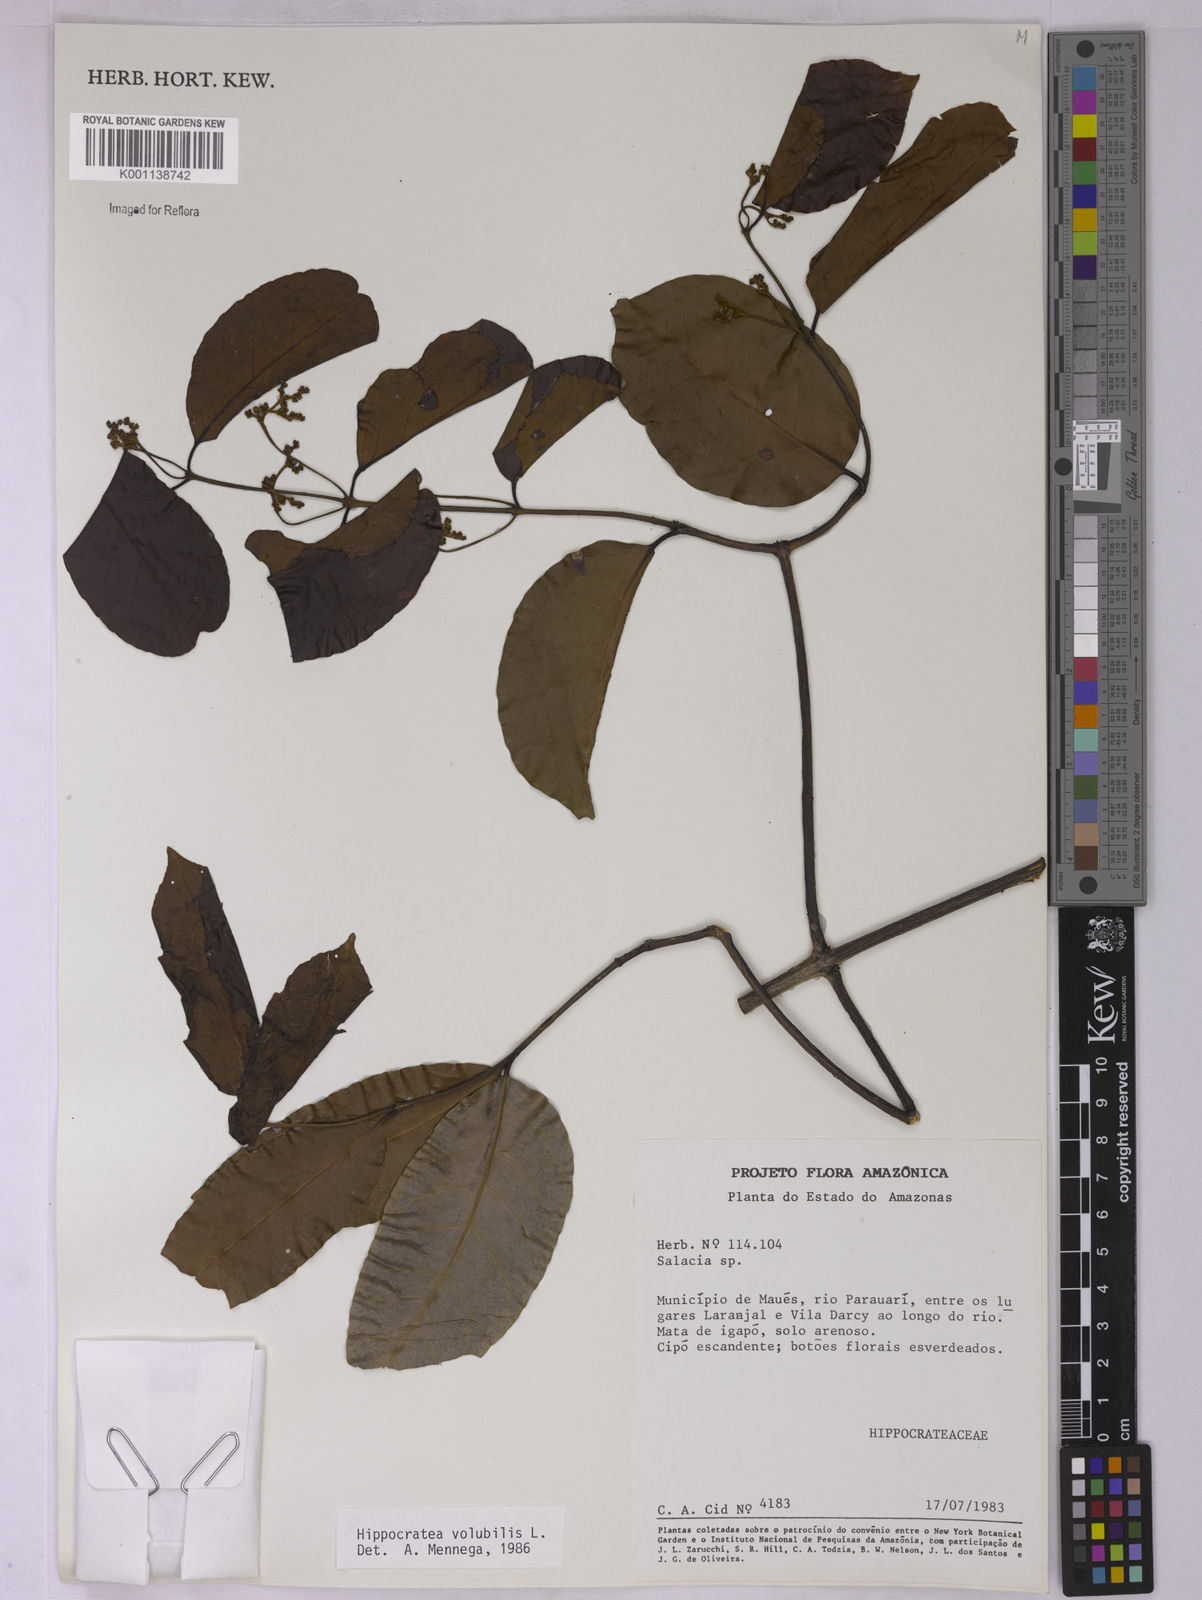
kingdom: Plantae
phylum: Tracheophyta
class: Magnoliopsida
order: Celastrales
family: Celastraceae
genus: Hippocratea
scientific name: Hippocratea volubilis
